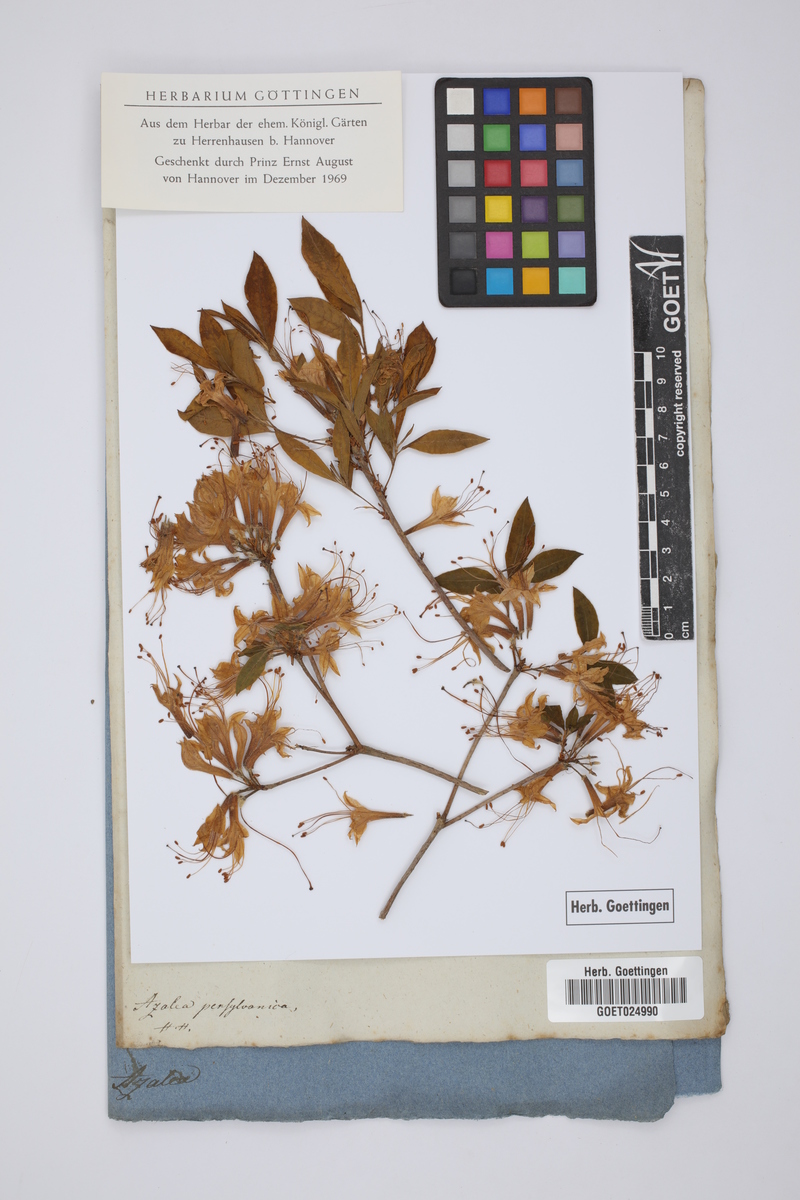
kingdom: Plantae
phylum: Tracheophyta
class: Magnoliopsida
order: Ericales
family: Ericaceae
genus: Rhododendron
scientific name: Rhododendron pennsylvanicum
